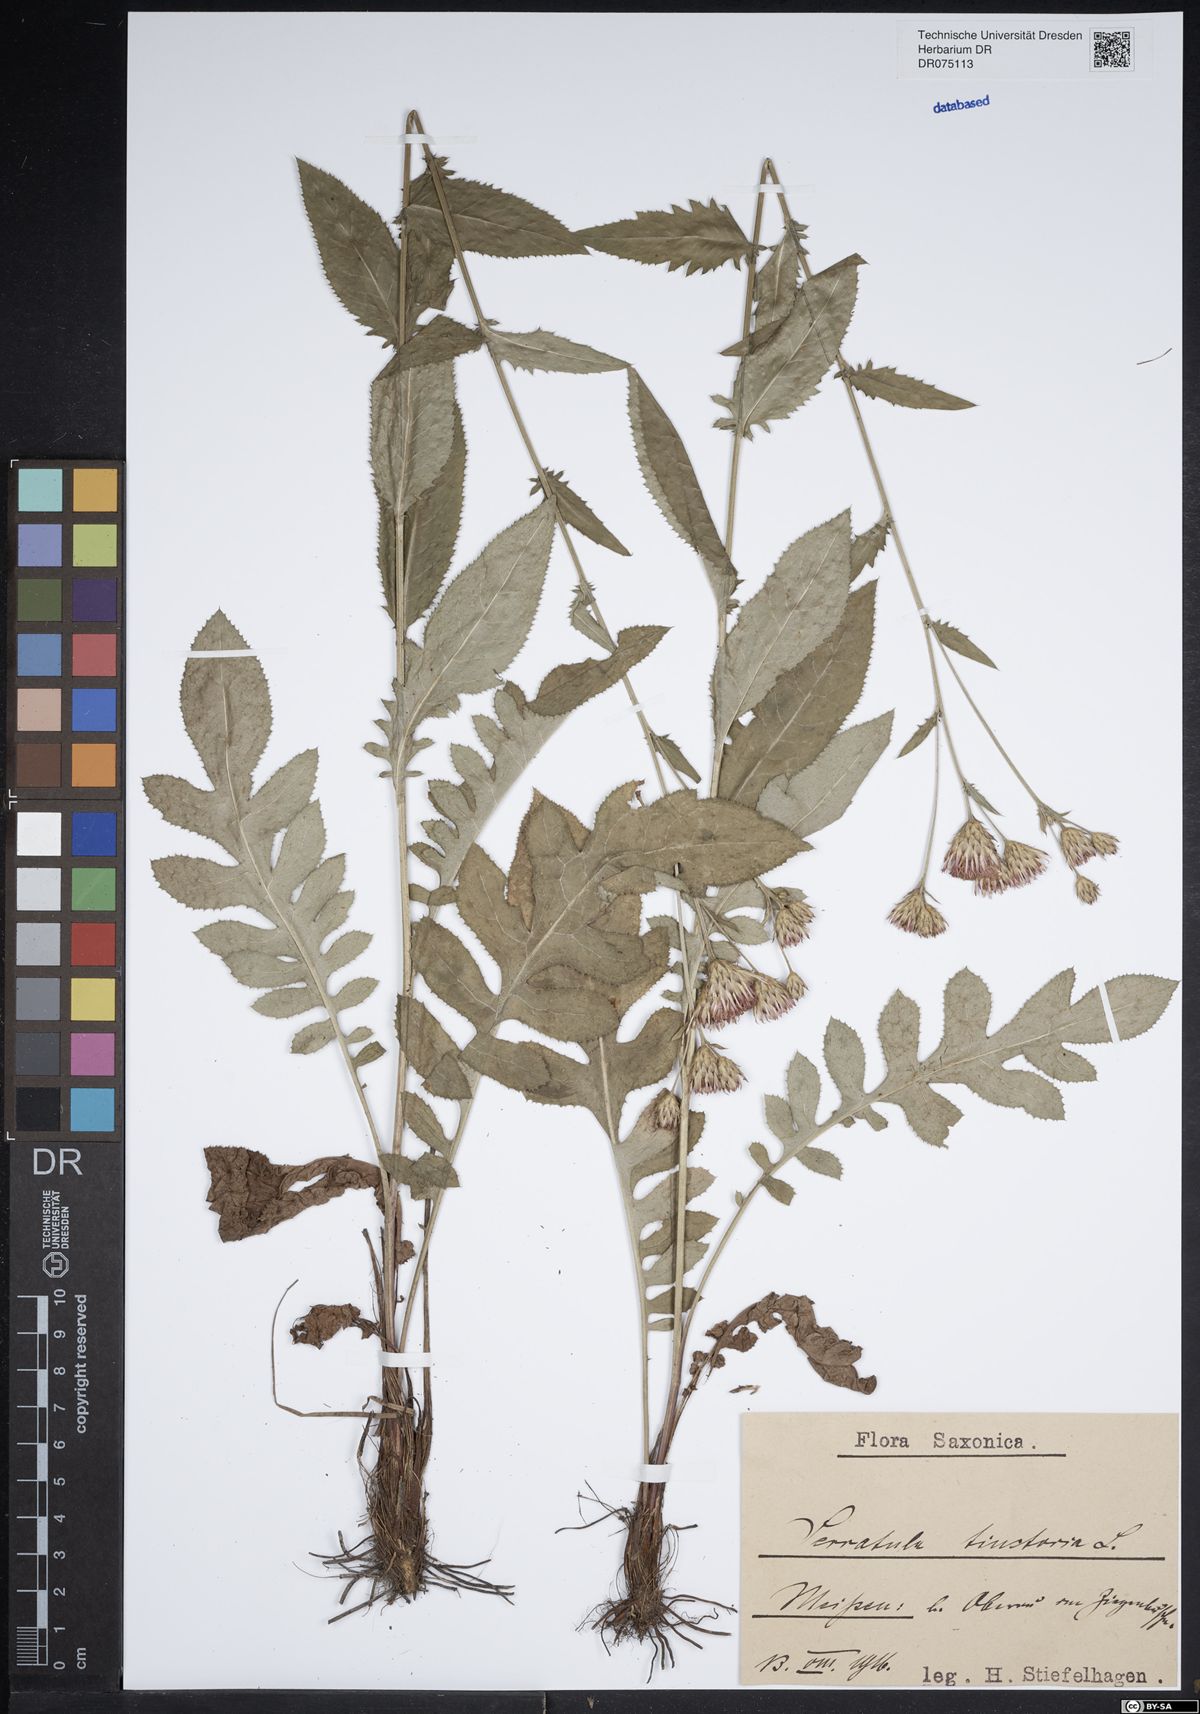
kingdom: Plantae
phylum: Tracheophyta
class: Magnoliopsida
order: Asterales
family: Asteraceae
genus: Serratula
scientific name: Serratula tinctoria
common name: Saw-wort
